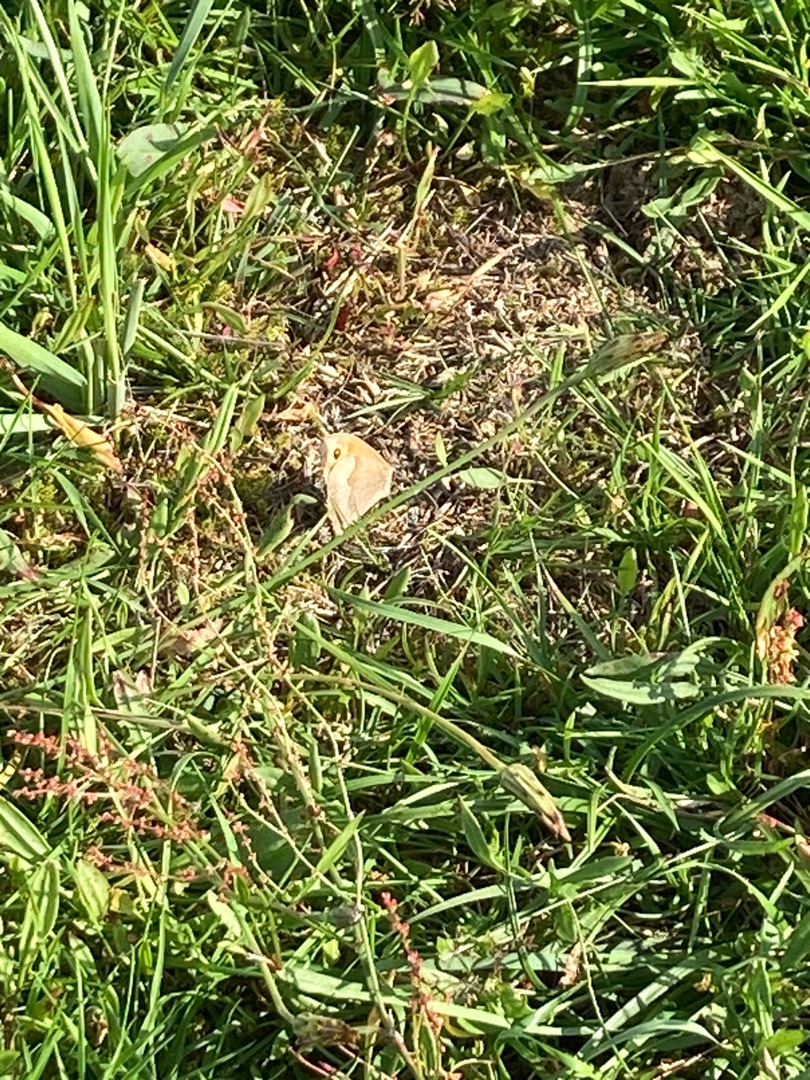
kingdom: Animalia
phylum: Arthropoda
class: Insecta
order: Lepidoptera
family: Nymphalidae
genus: Maniola
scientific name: Maniola jurtina
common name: Græsrandøje
